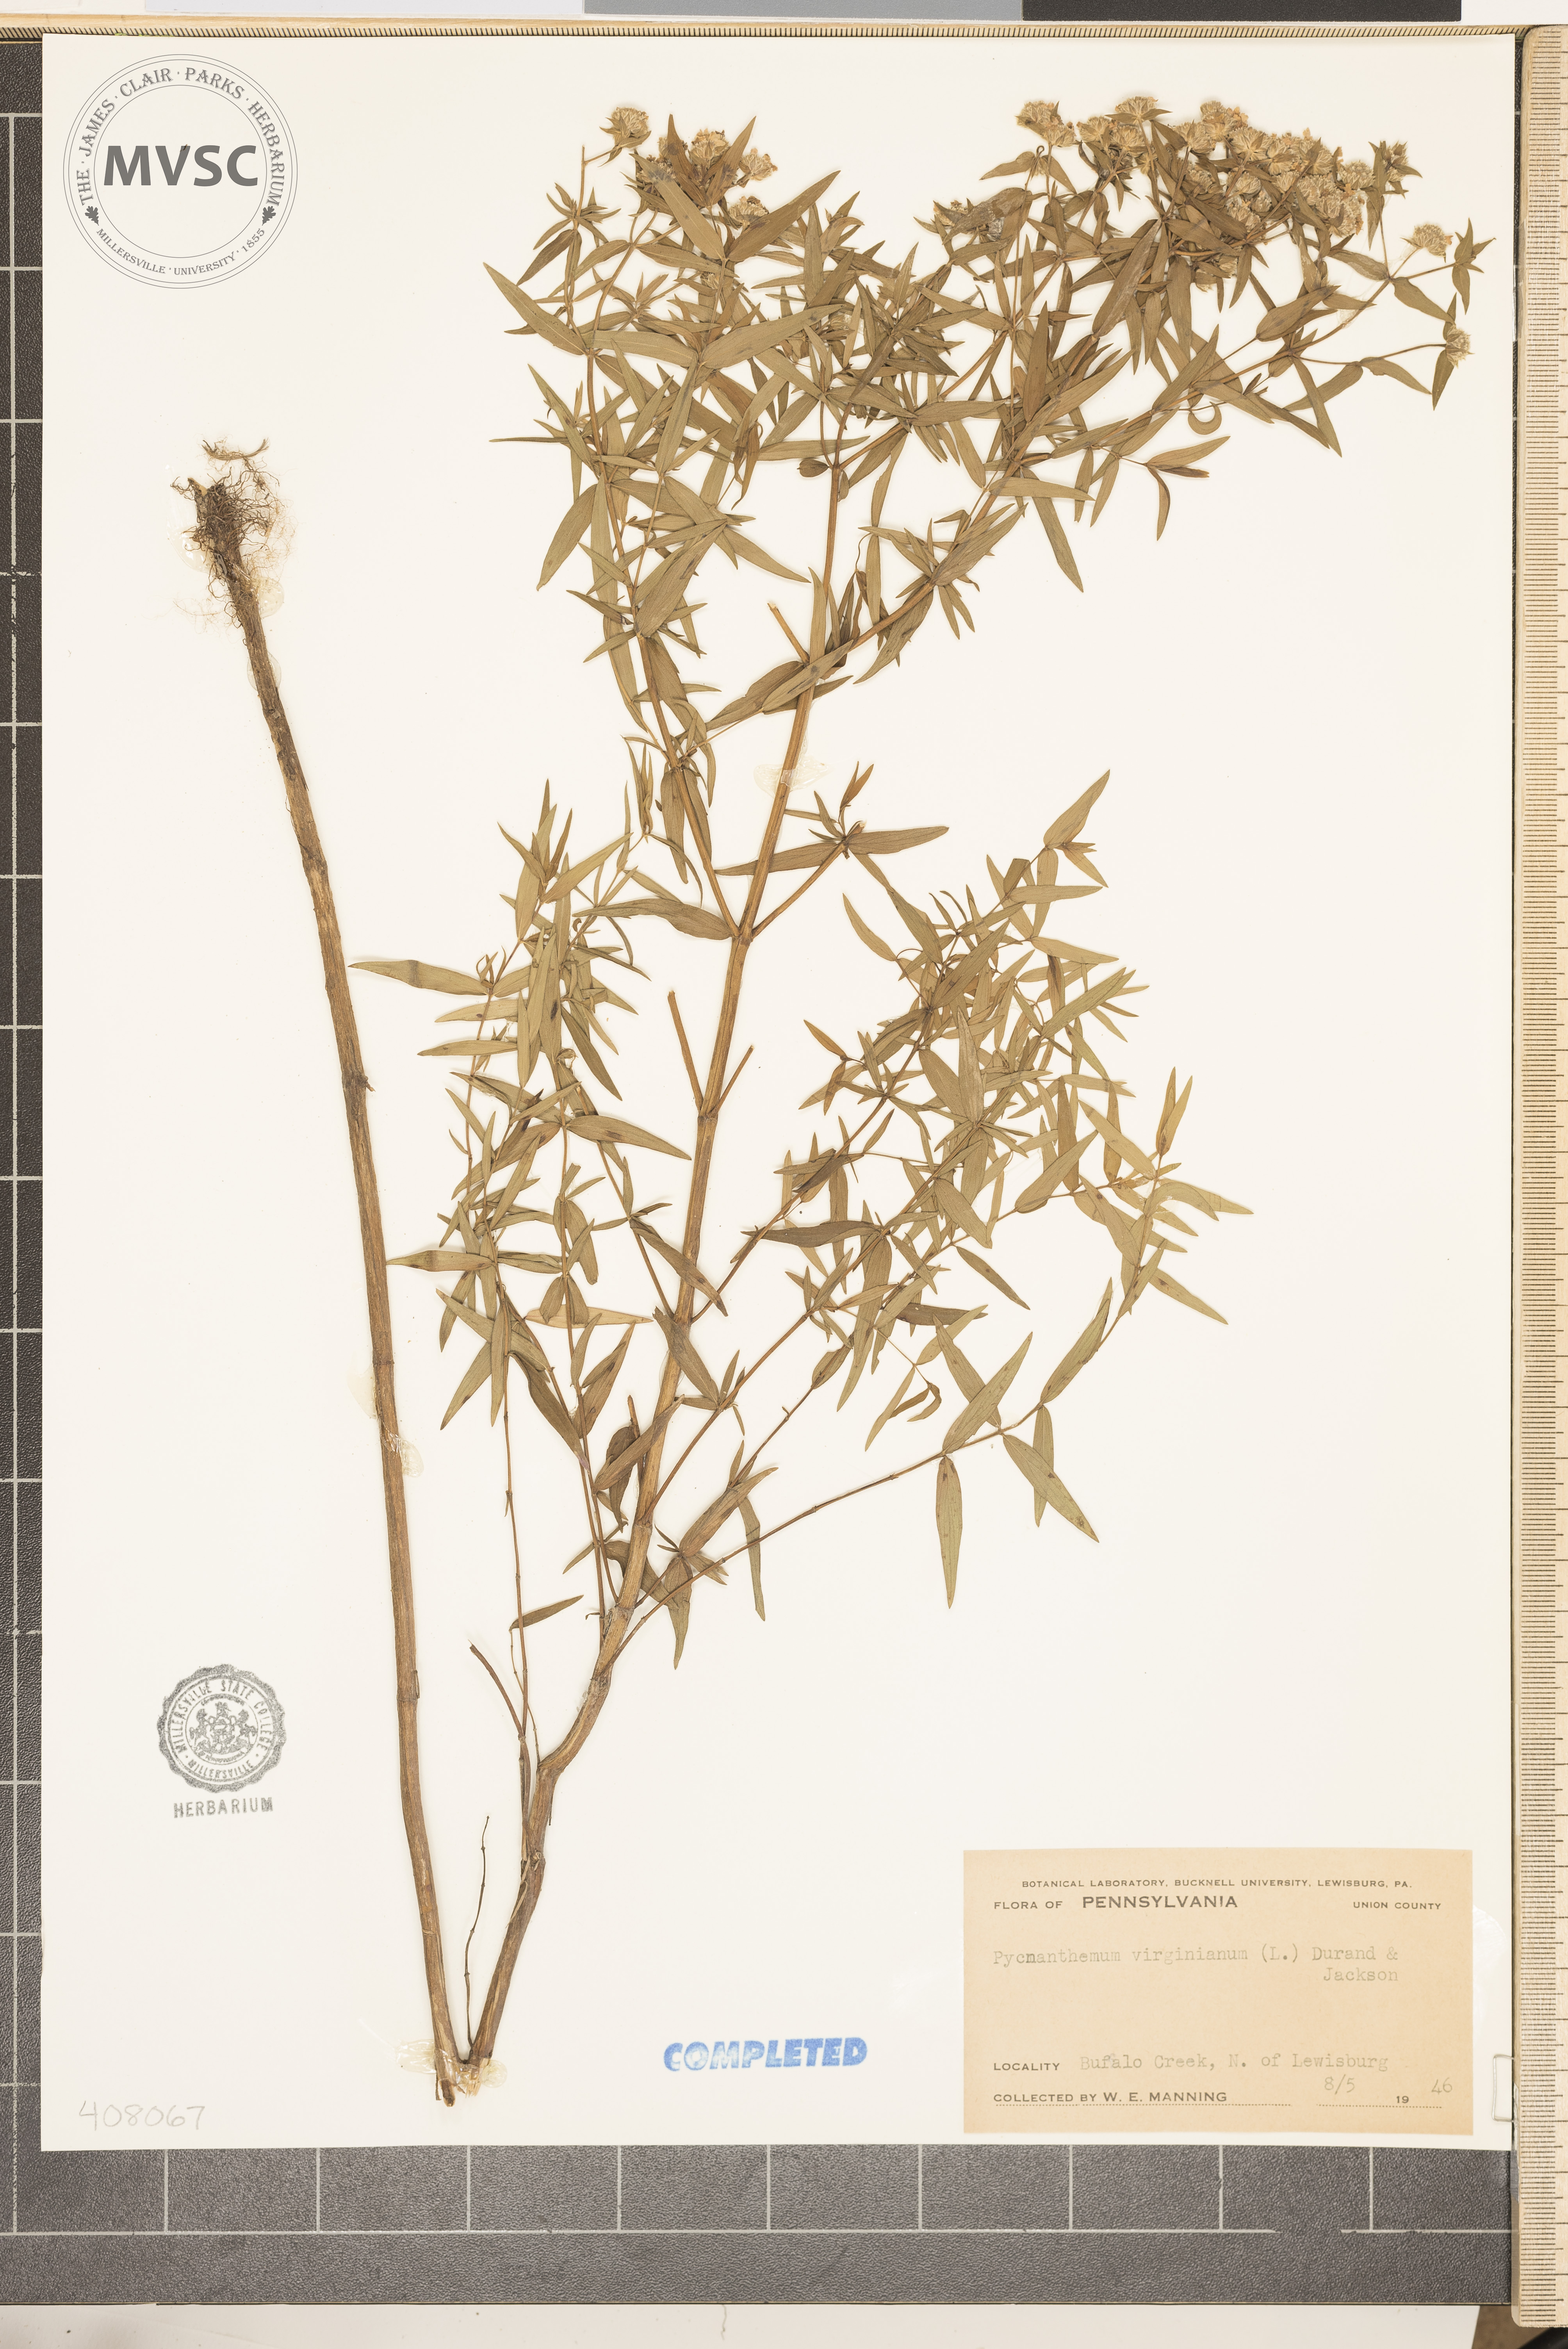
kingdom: Plantae
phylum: Tracheophyta
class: Magnoliopsida
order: Lamiales
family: Lamiaceae
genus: Pycnanthemum
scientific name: Pycnanthemum virginianum
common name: Virginia mountain-mint
